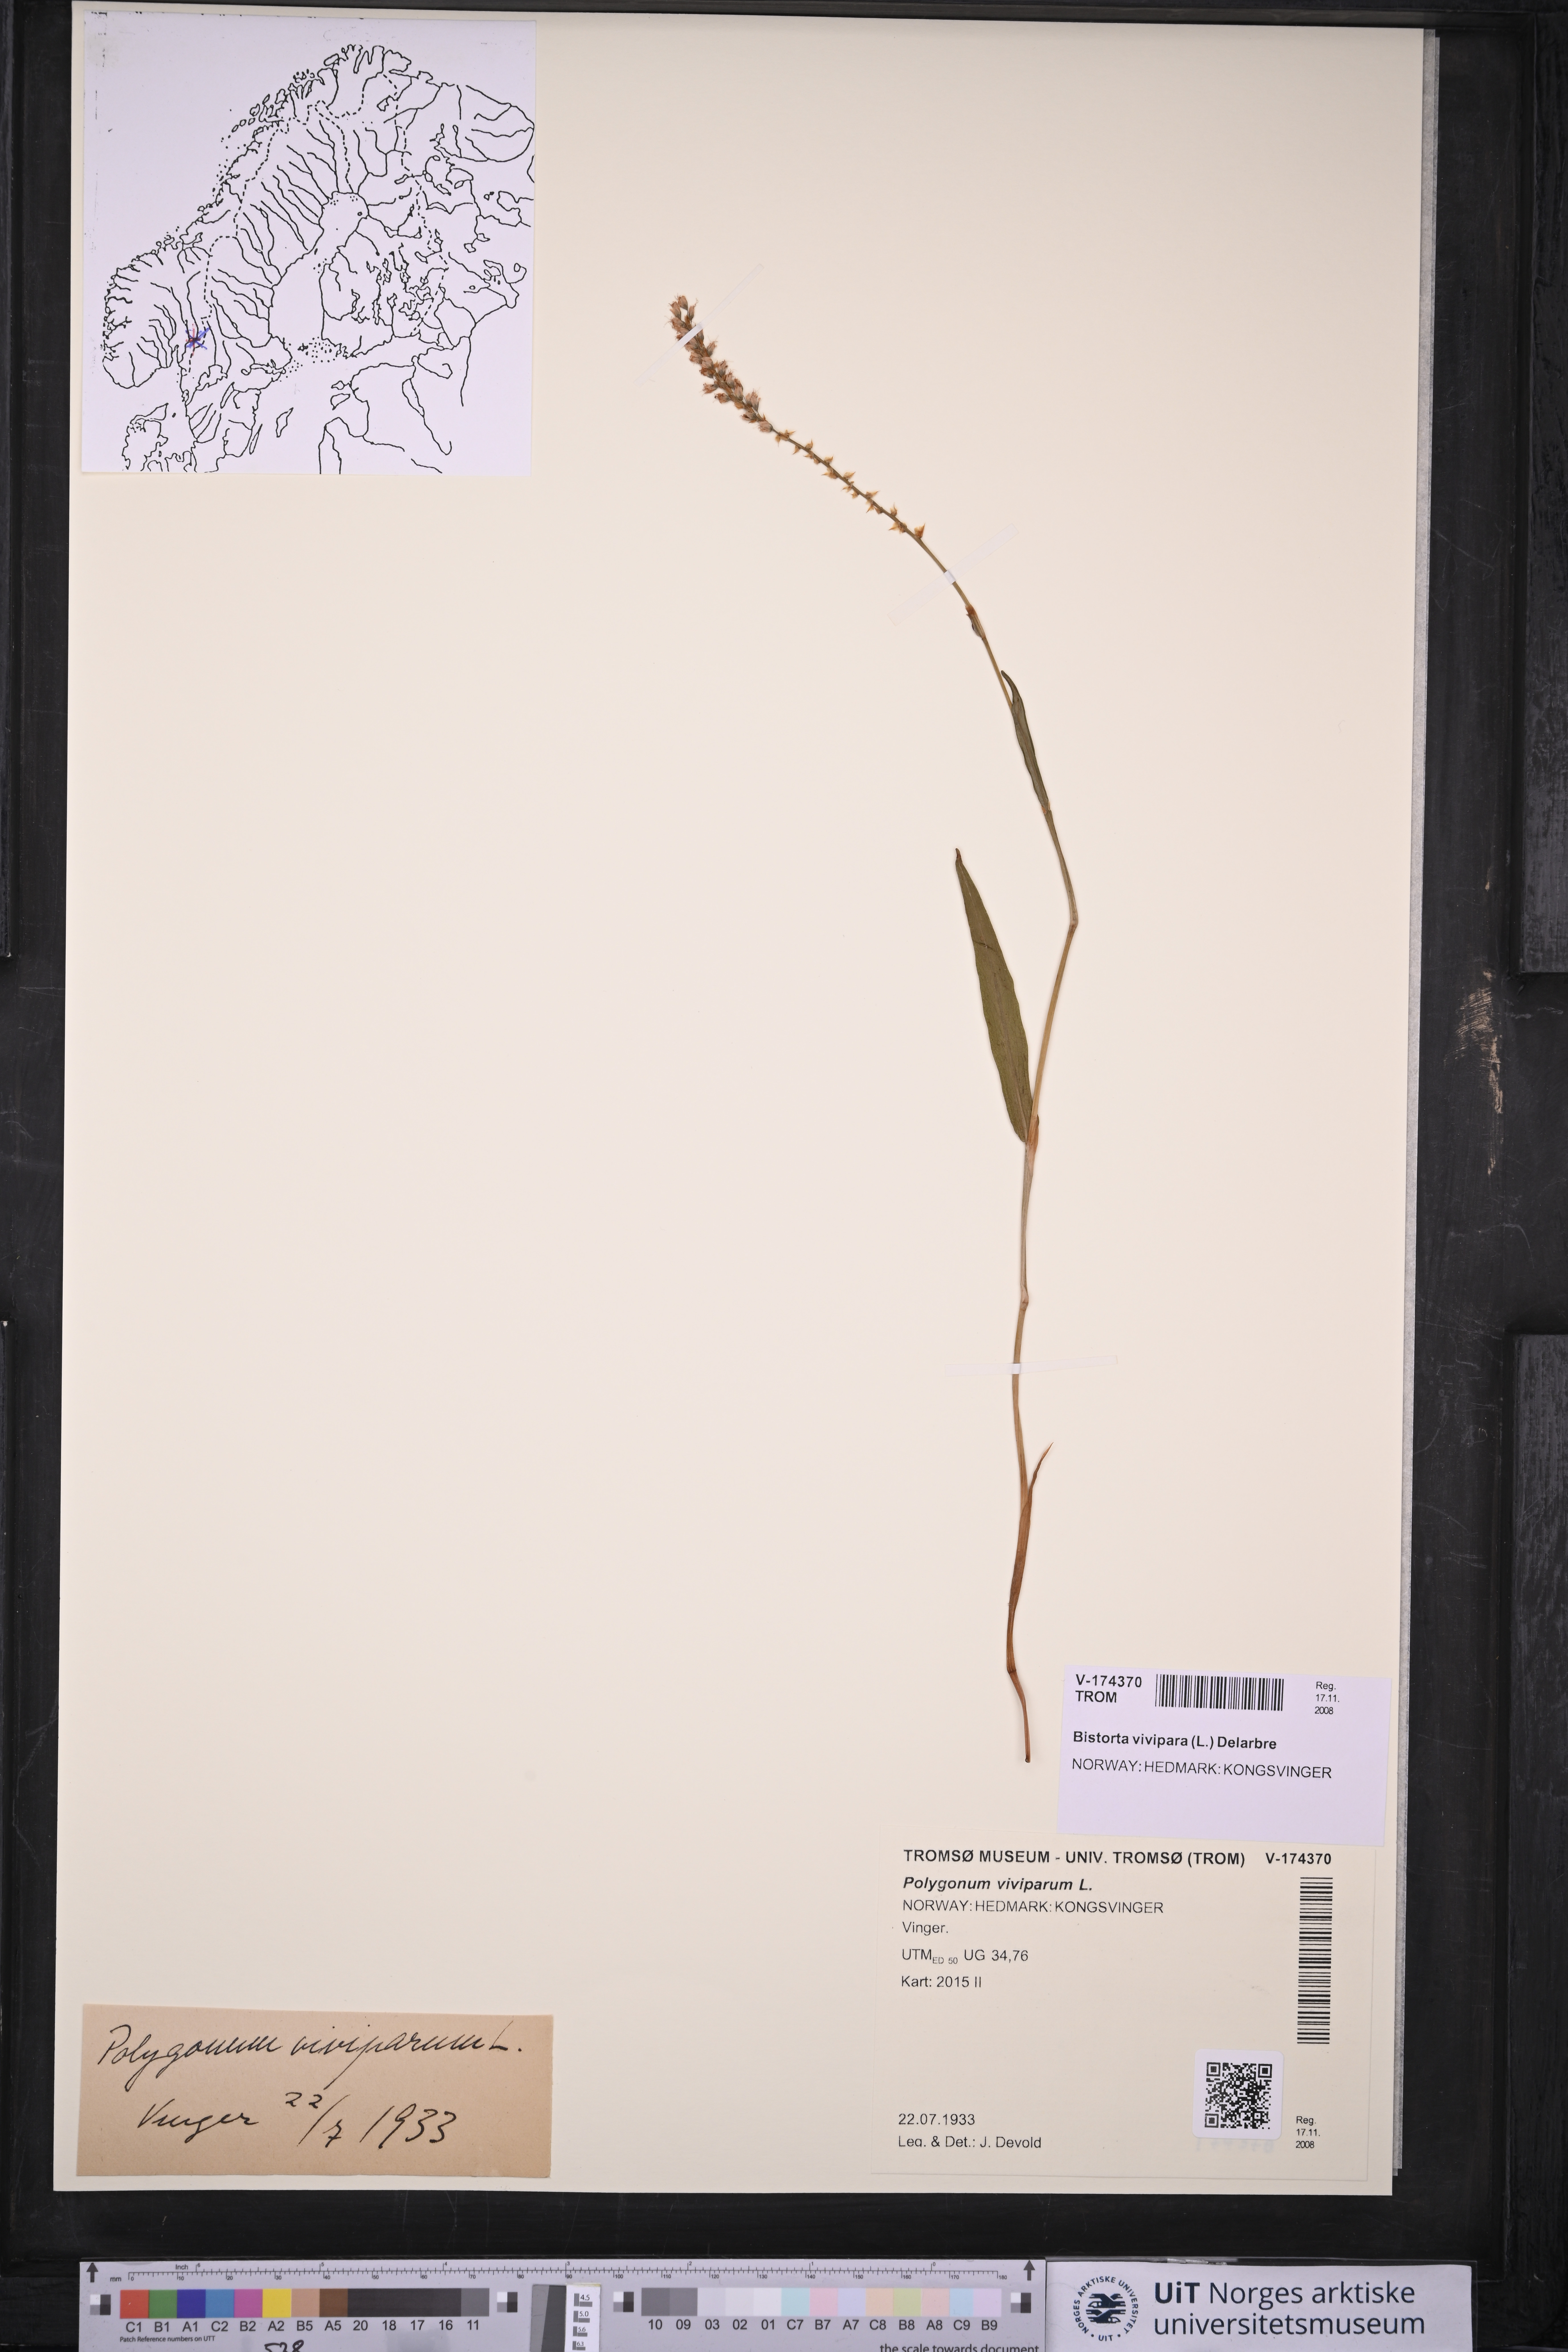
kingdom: Plantae
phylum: Tracheophyta
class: Magnoliopsida
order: Caryophyllales
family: Polygonaceae
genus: Bistorta
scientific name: Bistorta vivipara
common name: Alpine bistort
